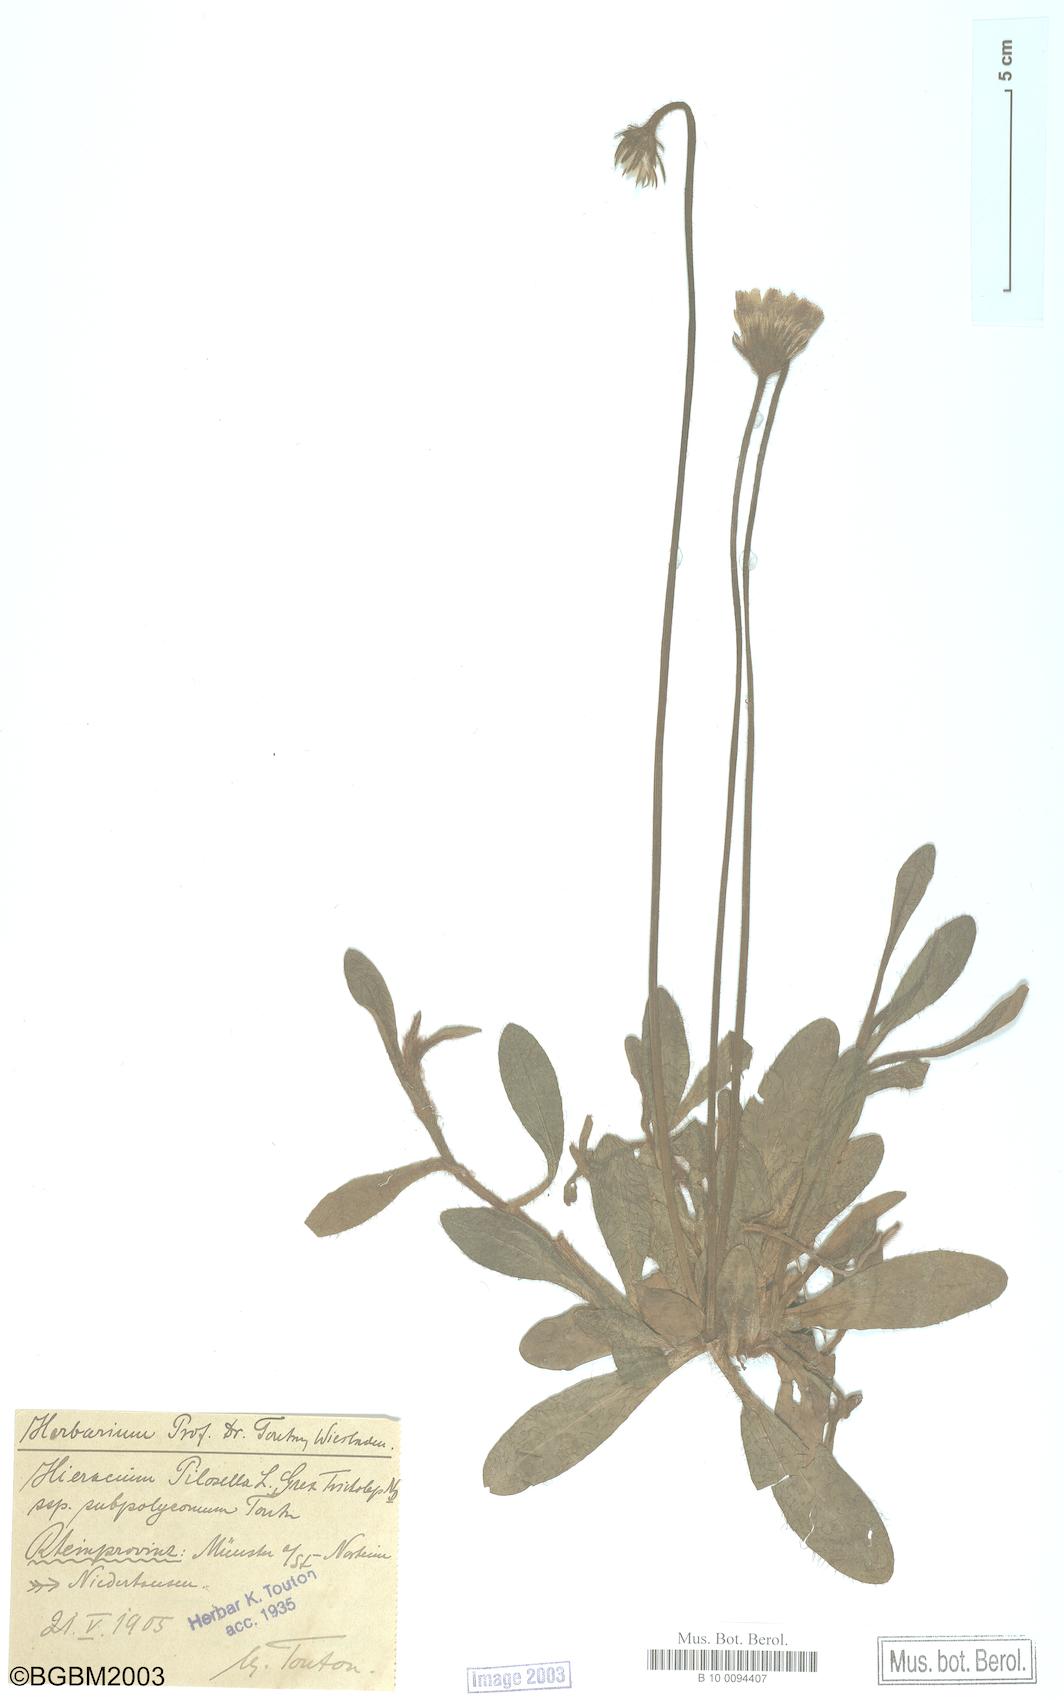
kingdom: Plantae
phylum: Tracheophyta
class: Magnoliopsida
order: Asterales
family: Asteraceae
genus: Pilosella
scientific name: Pilosella officinarum
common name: Mouse-ear hawkweed
